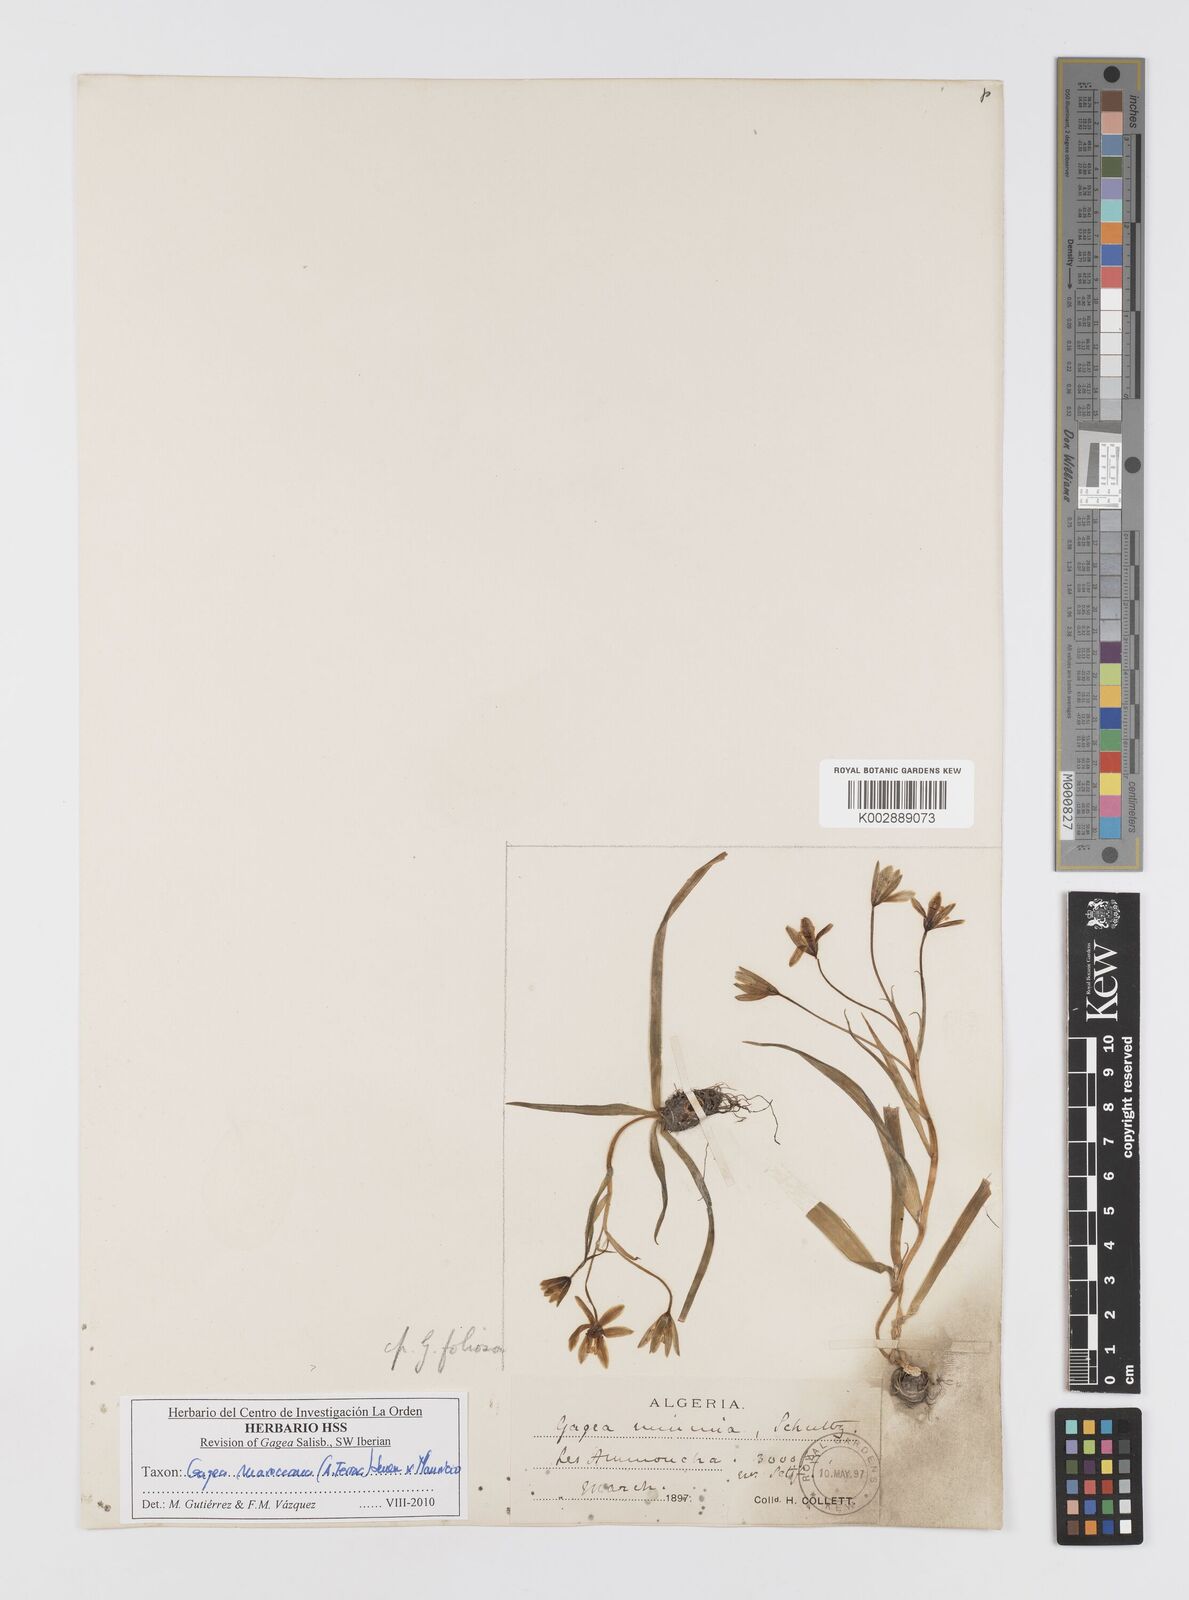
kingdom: Plantae
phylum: Tracheophyta
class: Liliopsida
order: Liliales
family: Liliaceae
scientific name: Liliaceae
